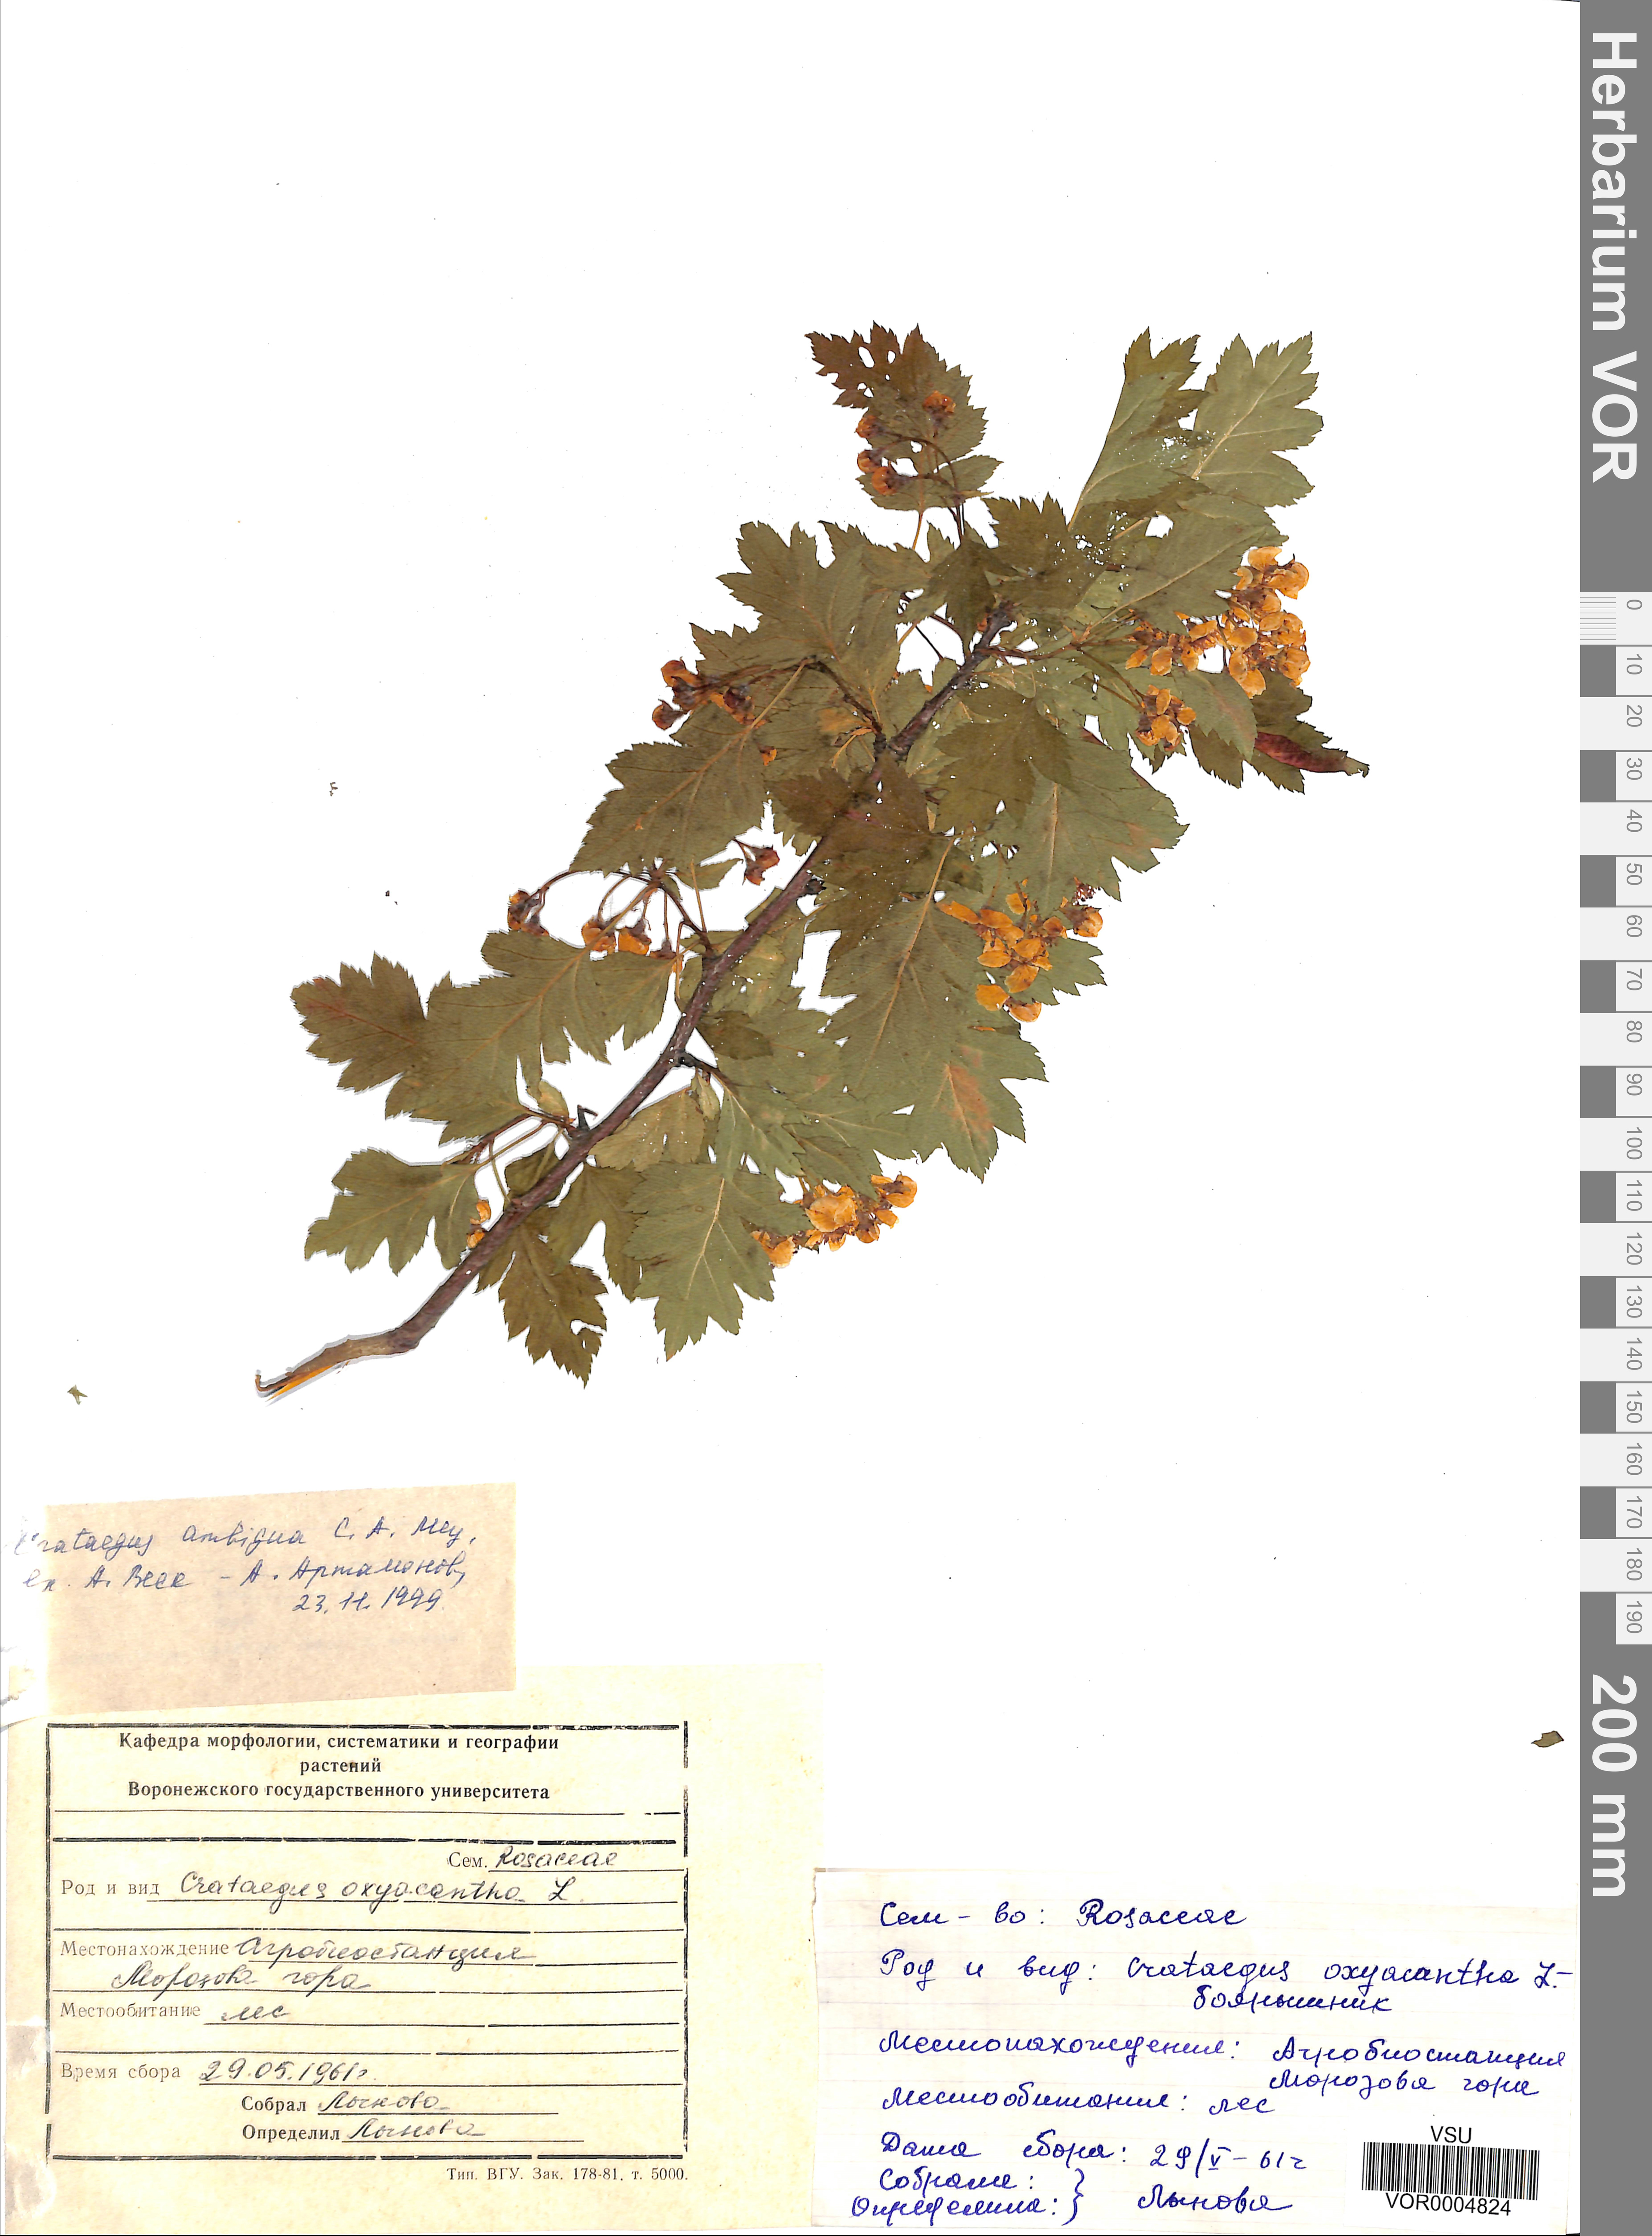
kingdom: Plantae
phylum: Tracheophyta
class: Magnoliopsida
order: Rosales
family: Rosaceae
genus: Crataegus
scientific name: Crataegus ambigua
